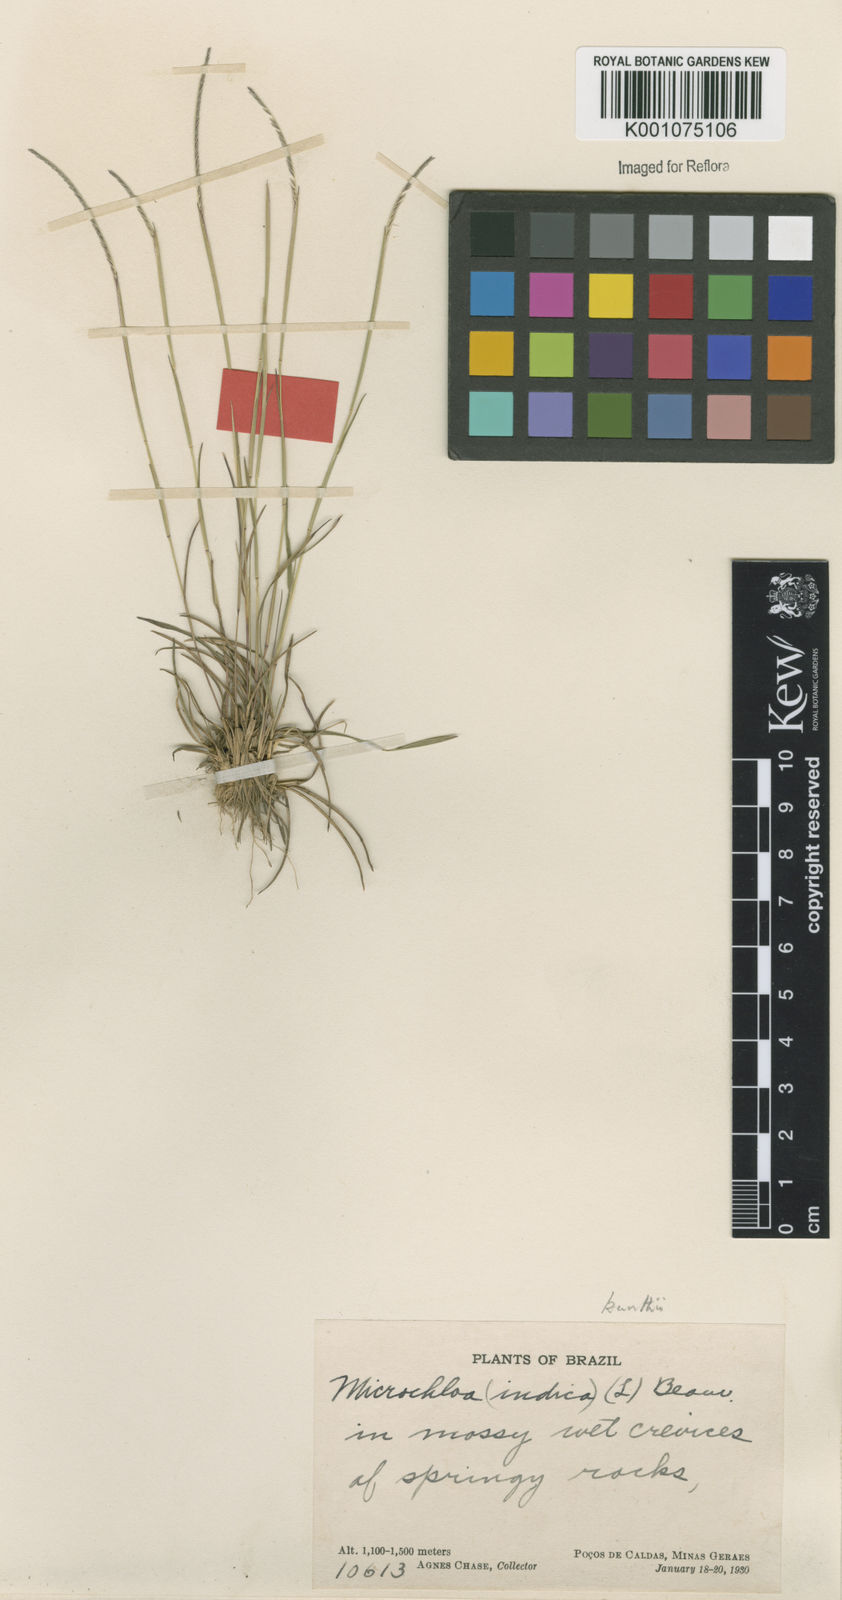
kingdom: Plantae
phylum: Tracheophyta
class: Liliopsida
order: Poales
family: Poaceae
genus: Microchloa
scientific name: Microchloa indica
